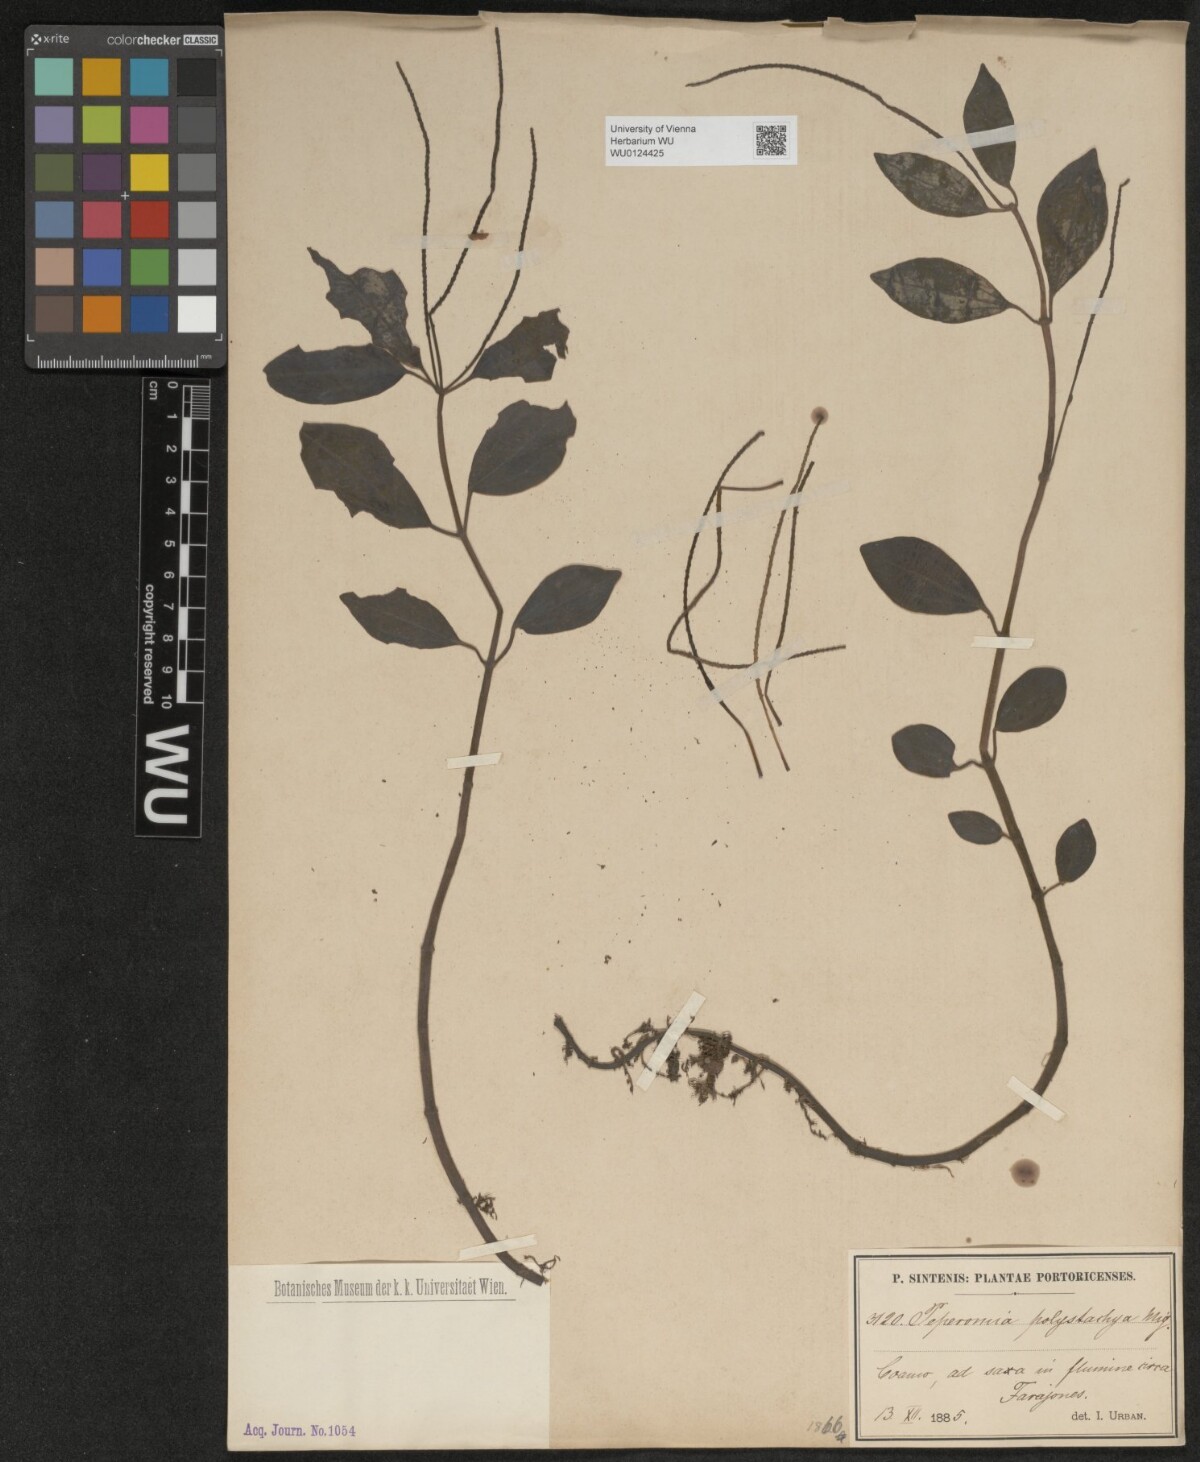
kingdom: Plantae
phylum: Tracheophyta
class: Magnoliopsida
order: Piperales
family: Piperaceae
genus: Peperomia
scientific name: Peperomia polystachya
